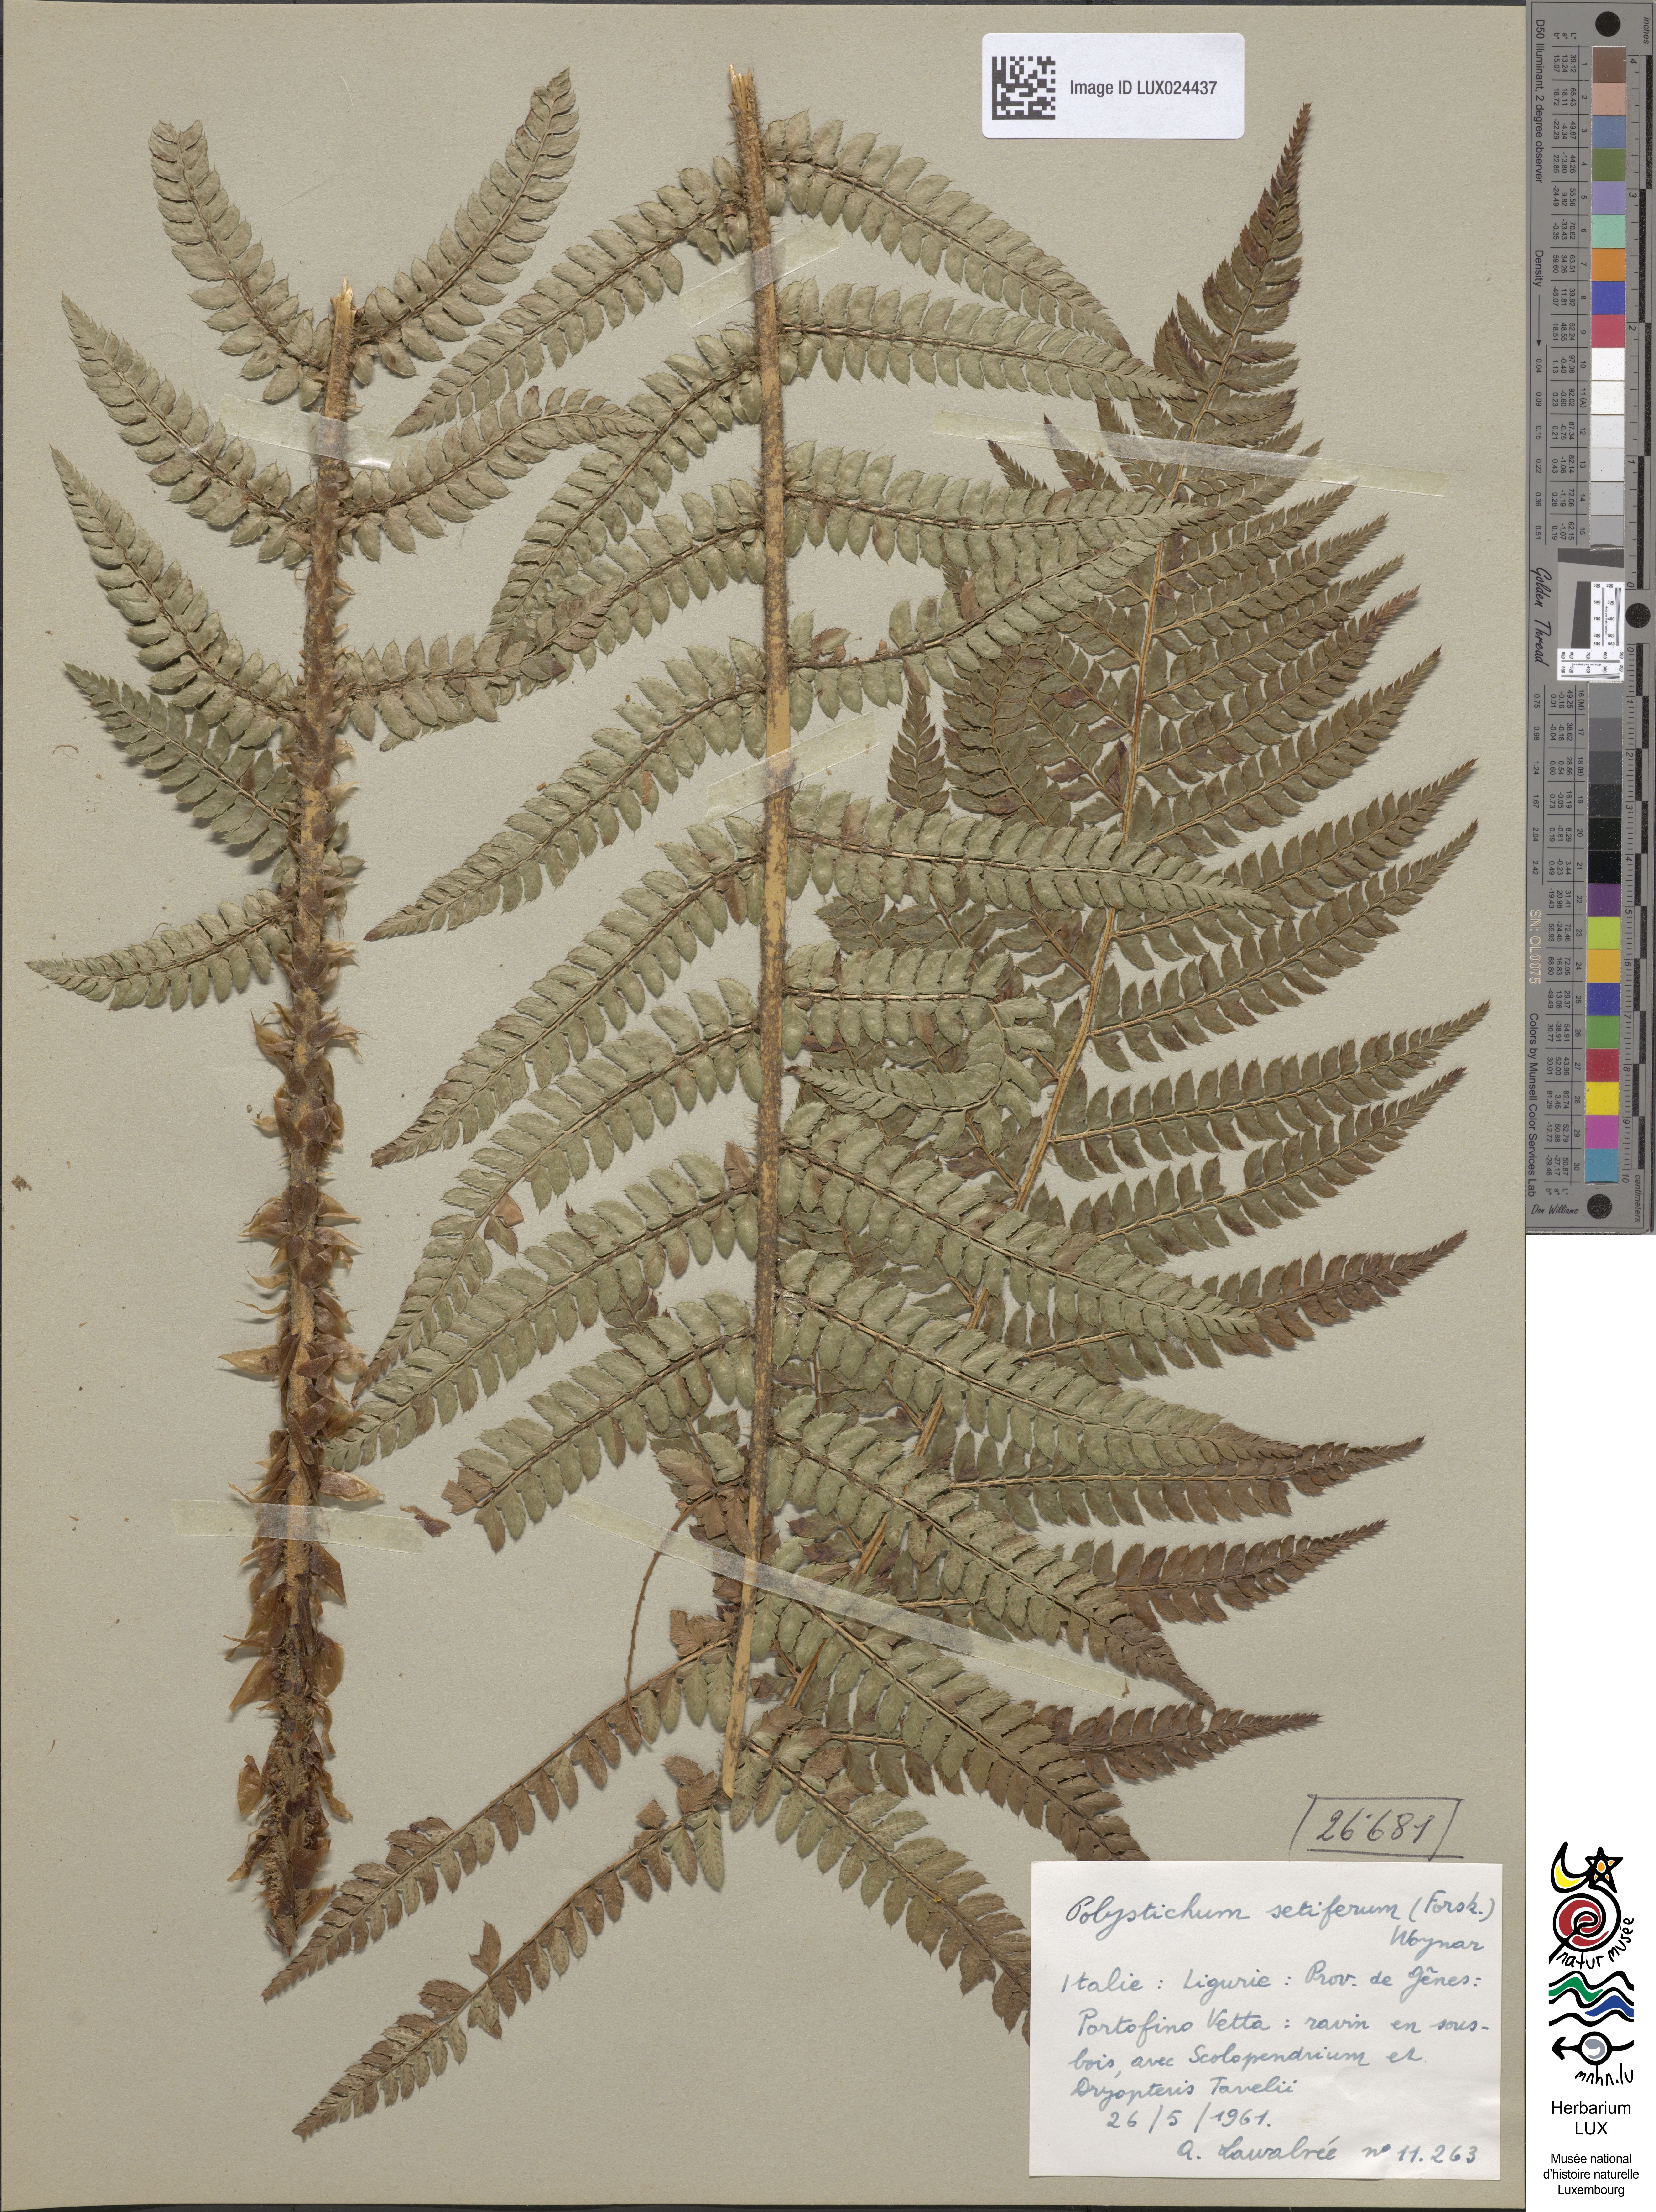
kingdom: Plantae
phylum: Tracheophyta
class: Polypodiopsida
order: Polypodiales
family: Dryopteridaceae
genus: Polystichum
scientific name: Polystichum setiferum
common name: Soft shield-fern
